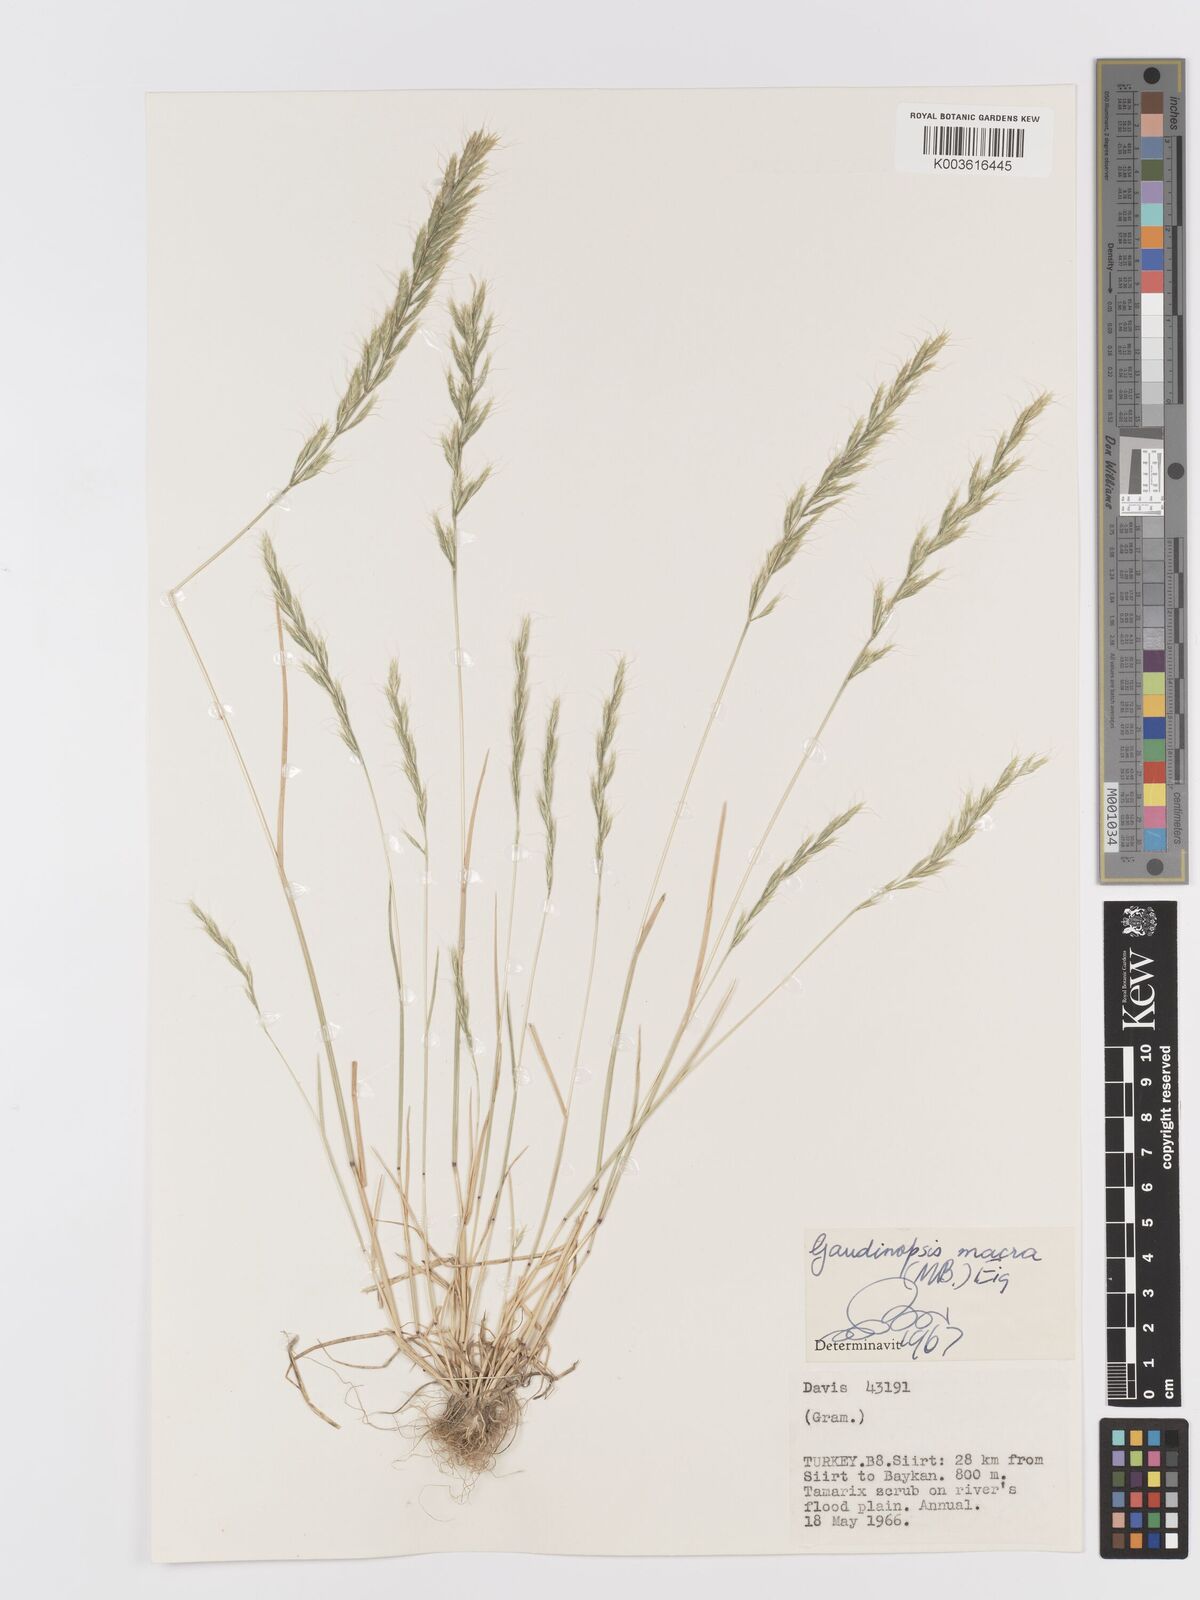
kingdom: Plantae
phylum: Tracheophyta
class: Liliopsida
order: Poales
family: Poaceae
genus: Ventenata
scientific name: Ventenata macra
